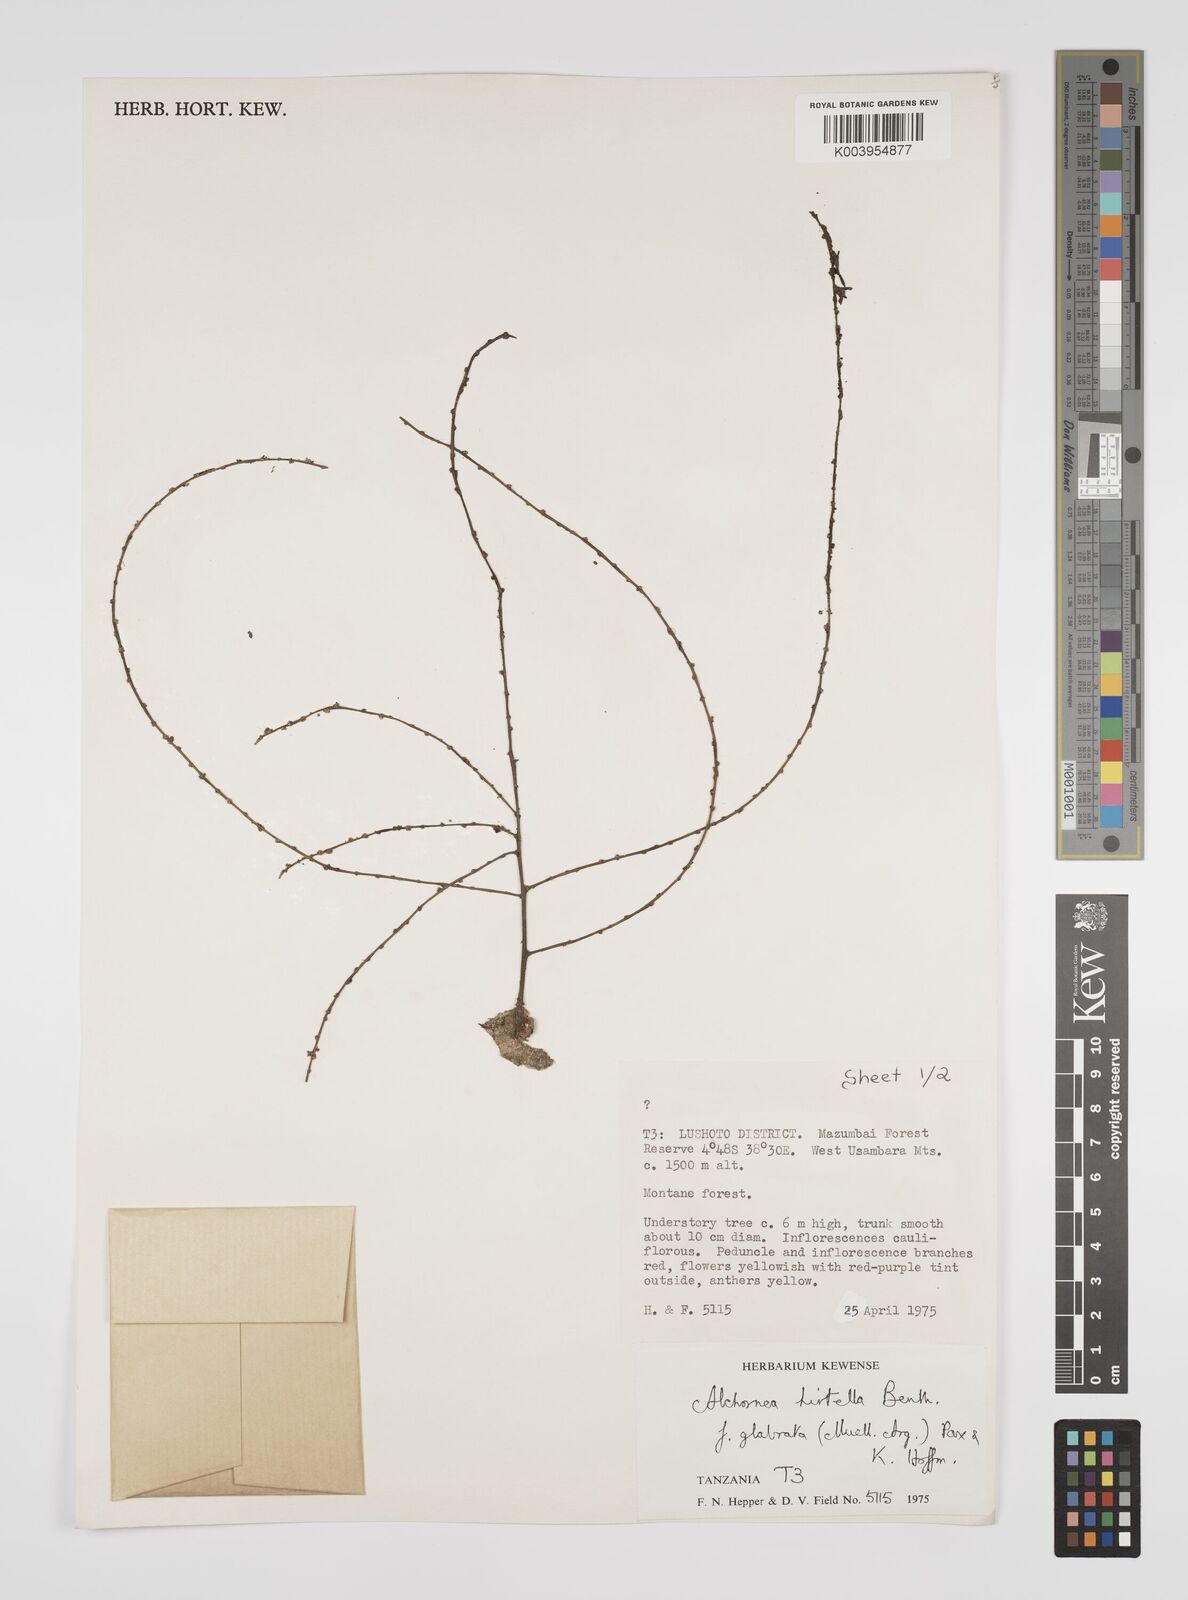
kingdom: Plantae
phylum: Tracheophyta
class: Magnoliopsida
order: Malpighiales
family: Euphorbiaceae
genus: Alchornea
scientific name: Alchornea hirtella
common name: Forest bead-string
